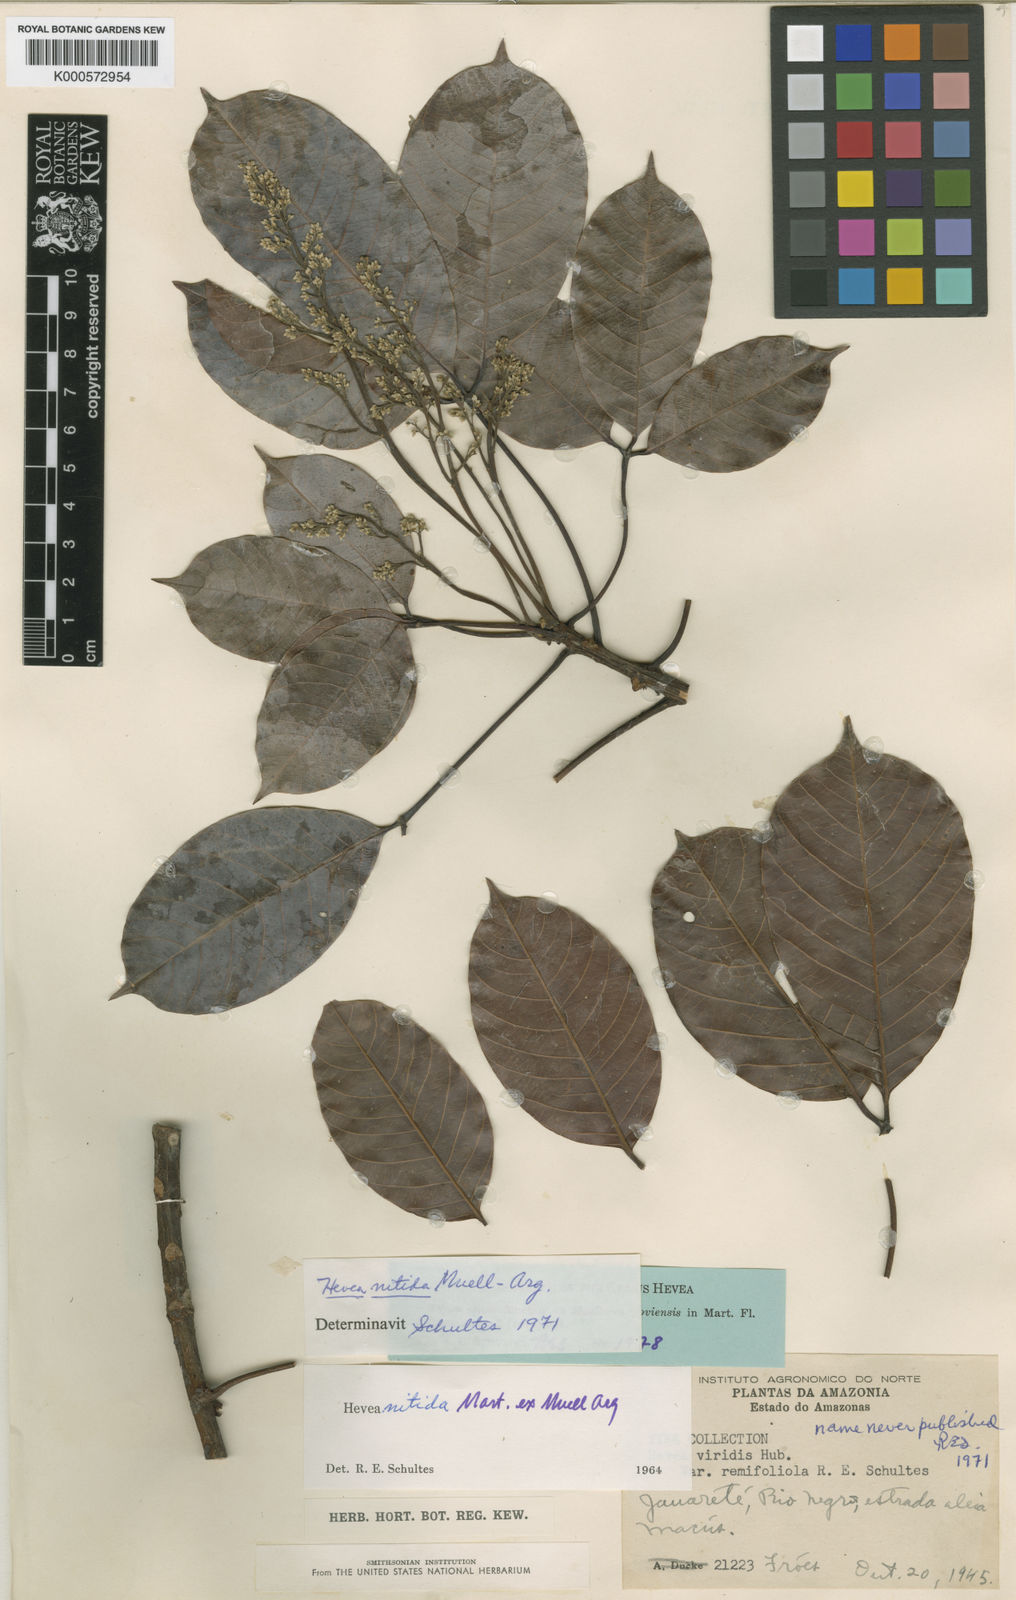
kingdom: Plantae
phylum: Tracheophyta
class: Magnoliopsida
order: Malpighiales
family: Euphorbiaceae
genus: Hevea
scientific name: Hevea nitida
